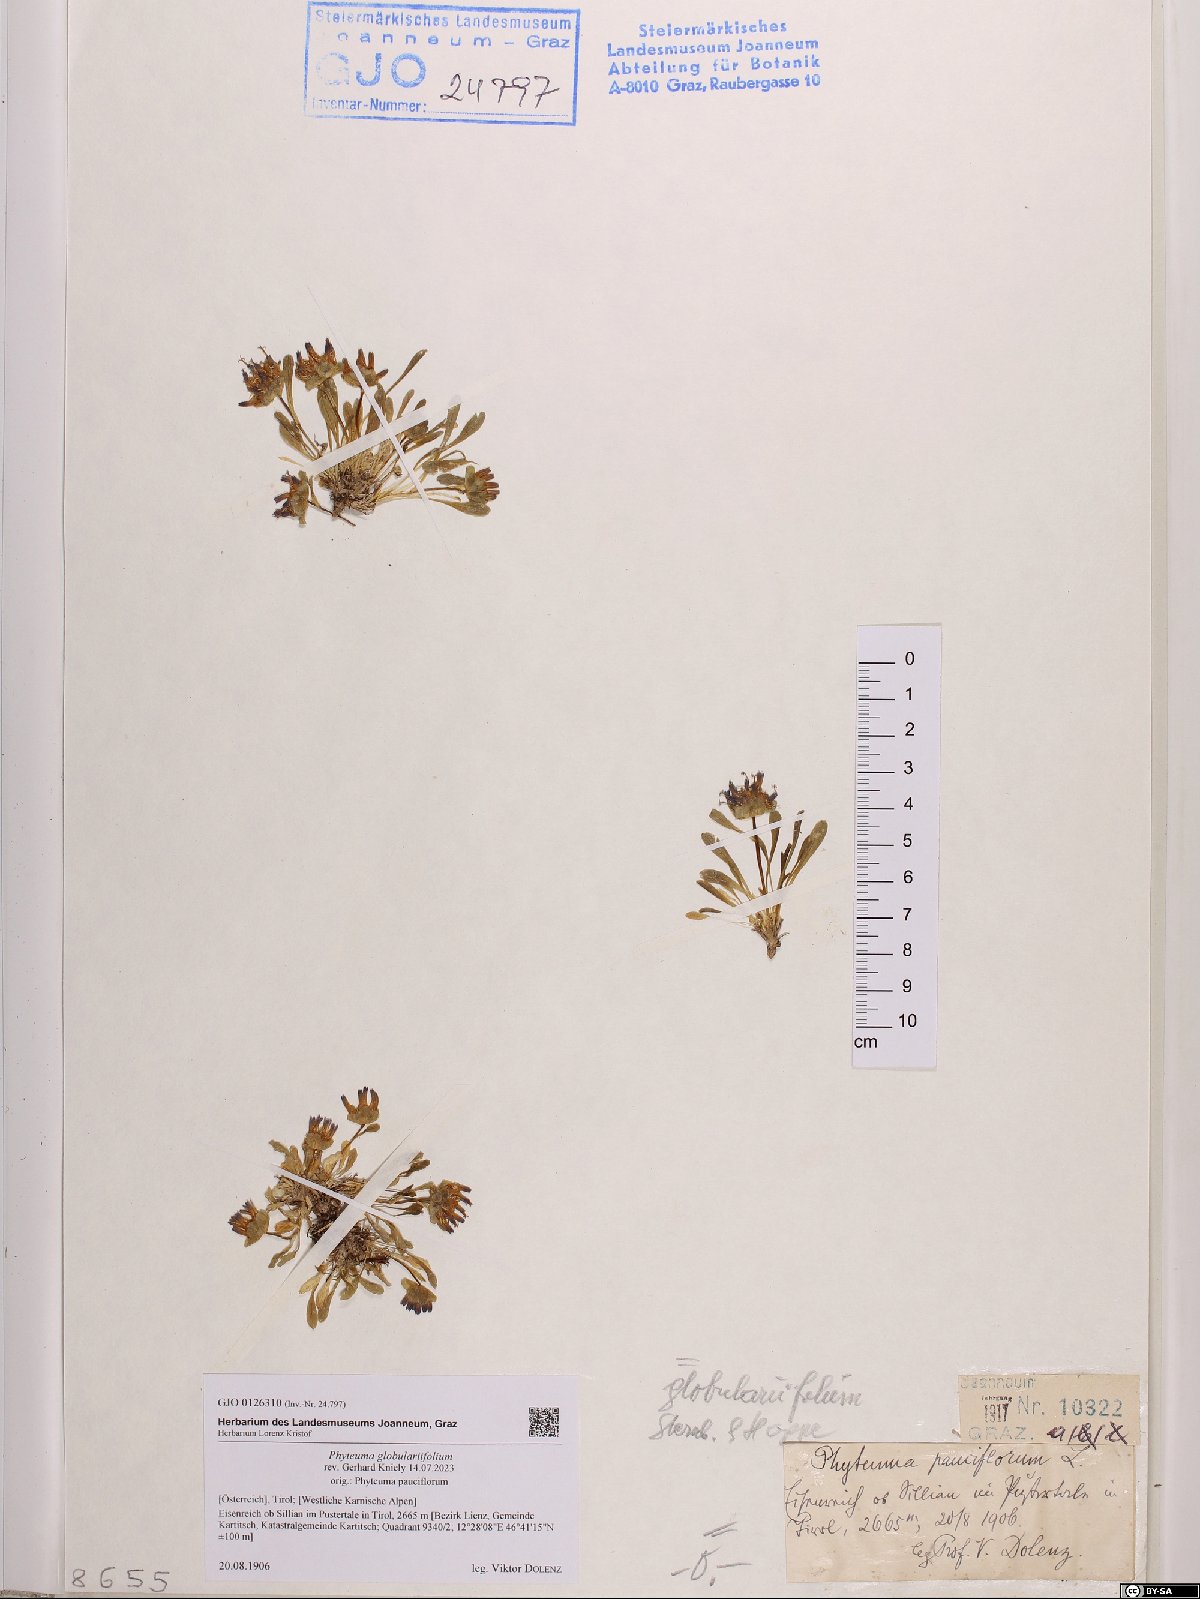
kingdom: Plantae
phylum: Tracheophyta
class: Magnoliopsida
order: Asterales
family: Campanulaceae
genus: Phyteuma
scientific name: Phyteuma globulariifolium
